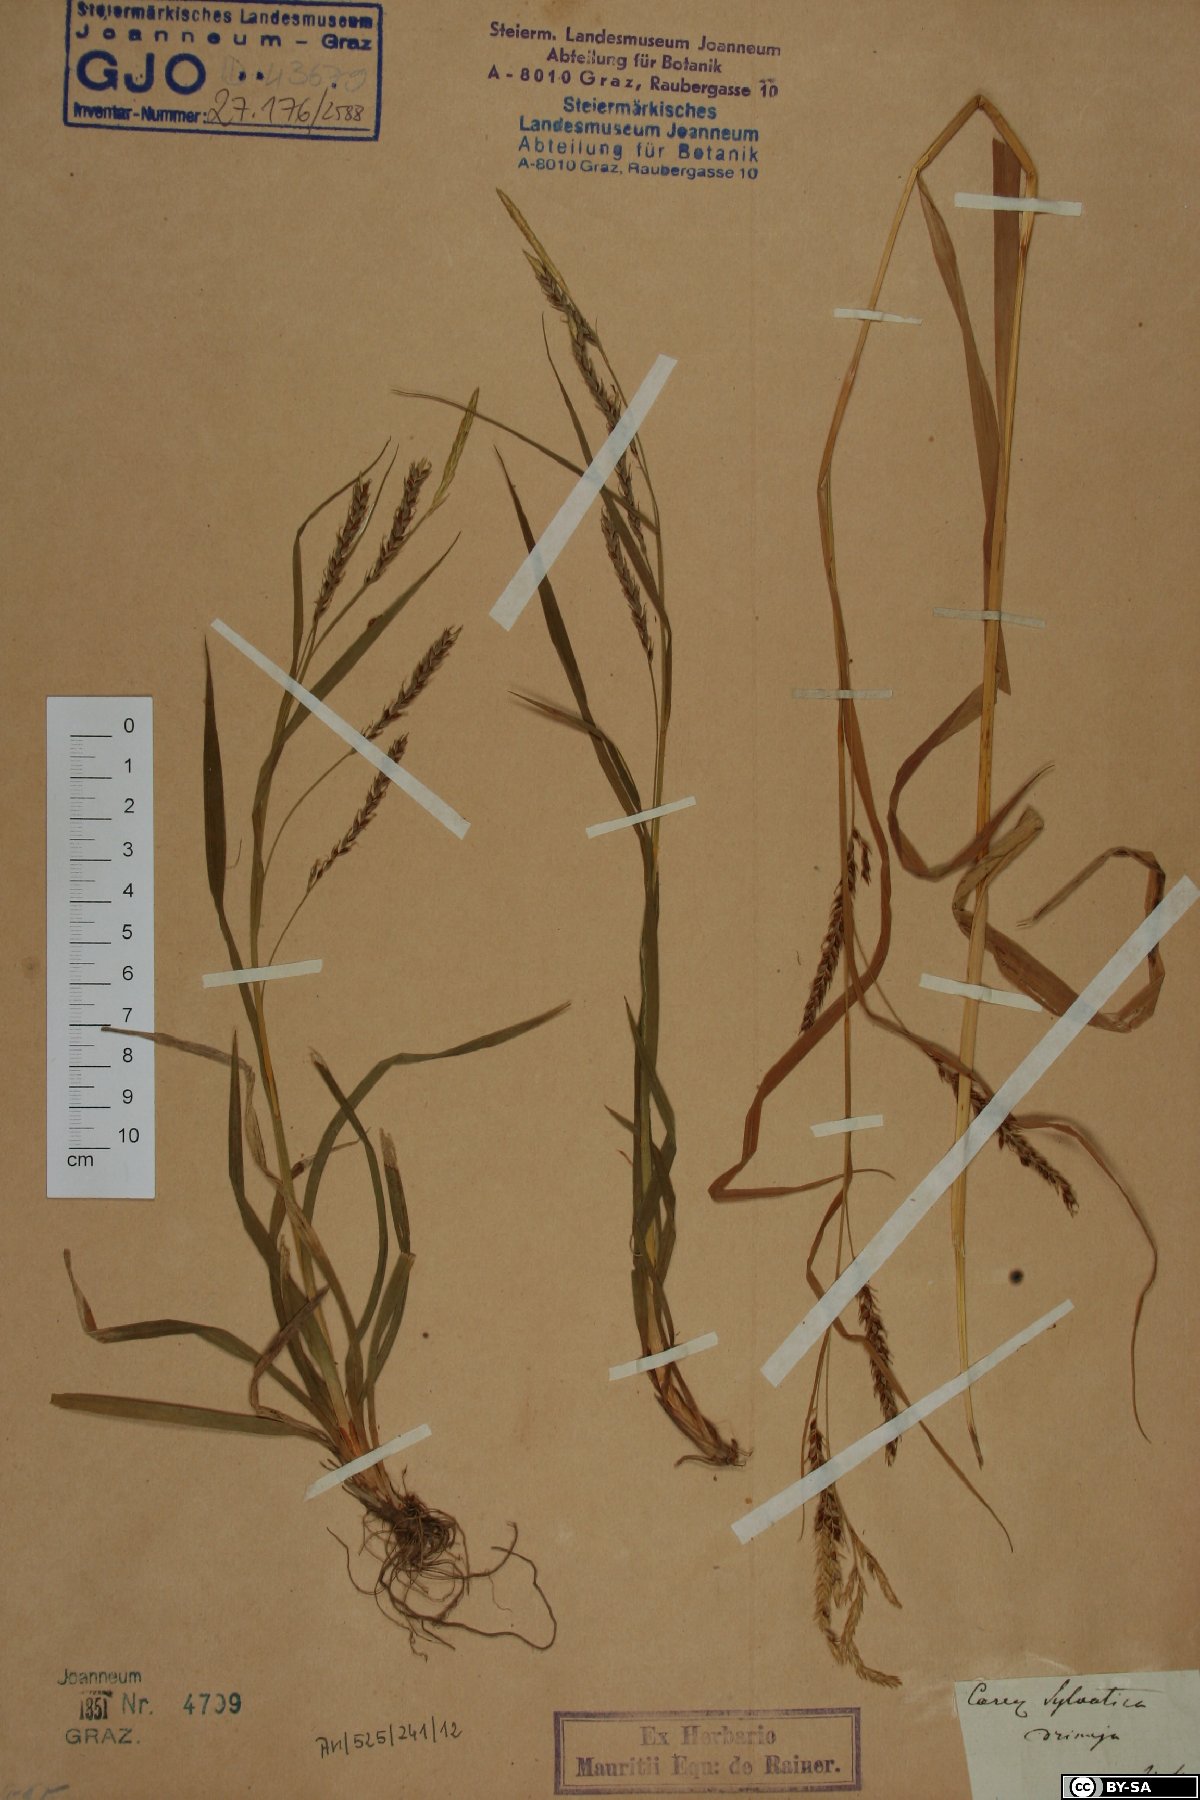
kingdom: Plantae
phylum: Tracheophyta
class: Liliopsida
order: Poales
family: Cyperaceae
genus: Carex
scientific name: Carex sylvatica
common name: Wood-sedge
